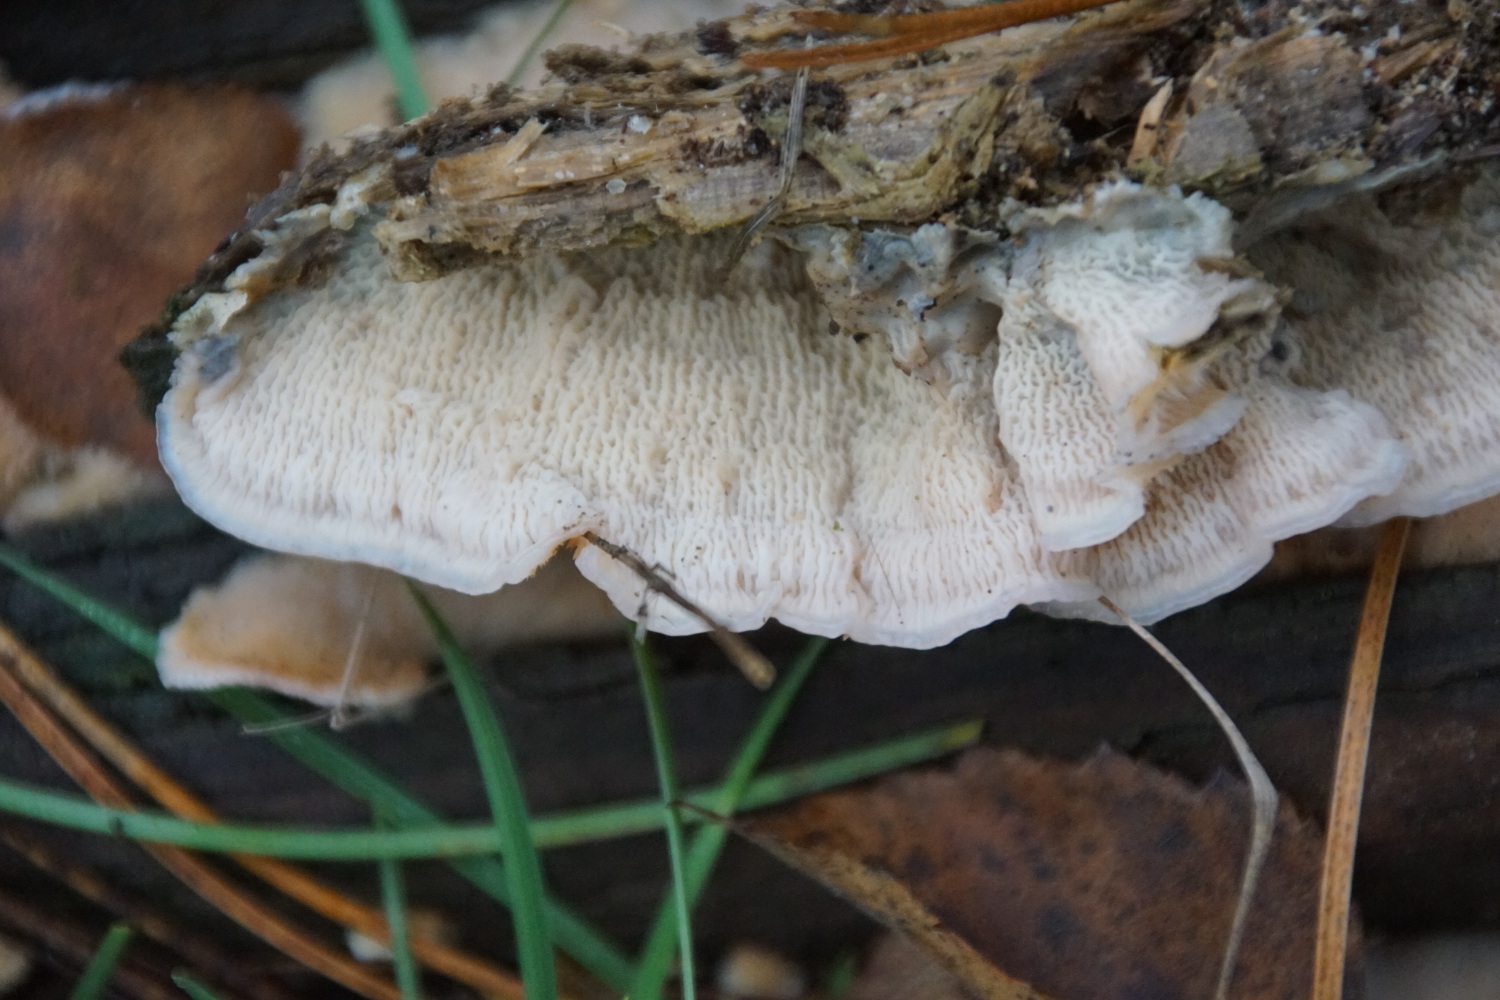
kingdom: Fungi
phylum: Basidiomycota
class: Agaricomycetes
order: Polyporales
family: Meruliaceae
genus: Phlebia
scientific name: Phlebia tremellosa
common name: bævrende åresvamp
